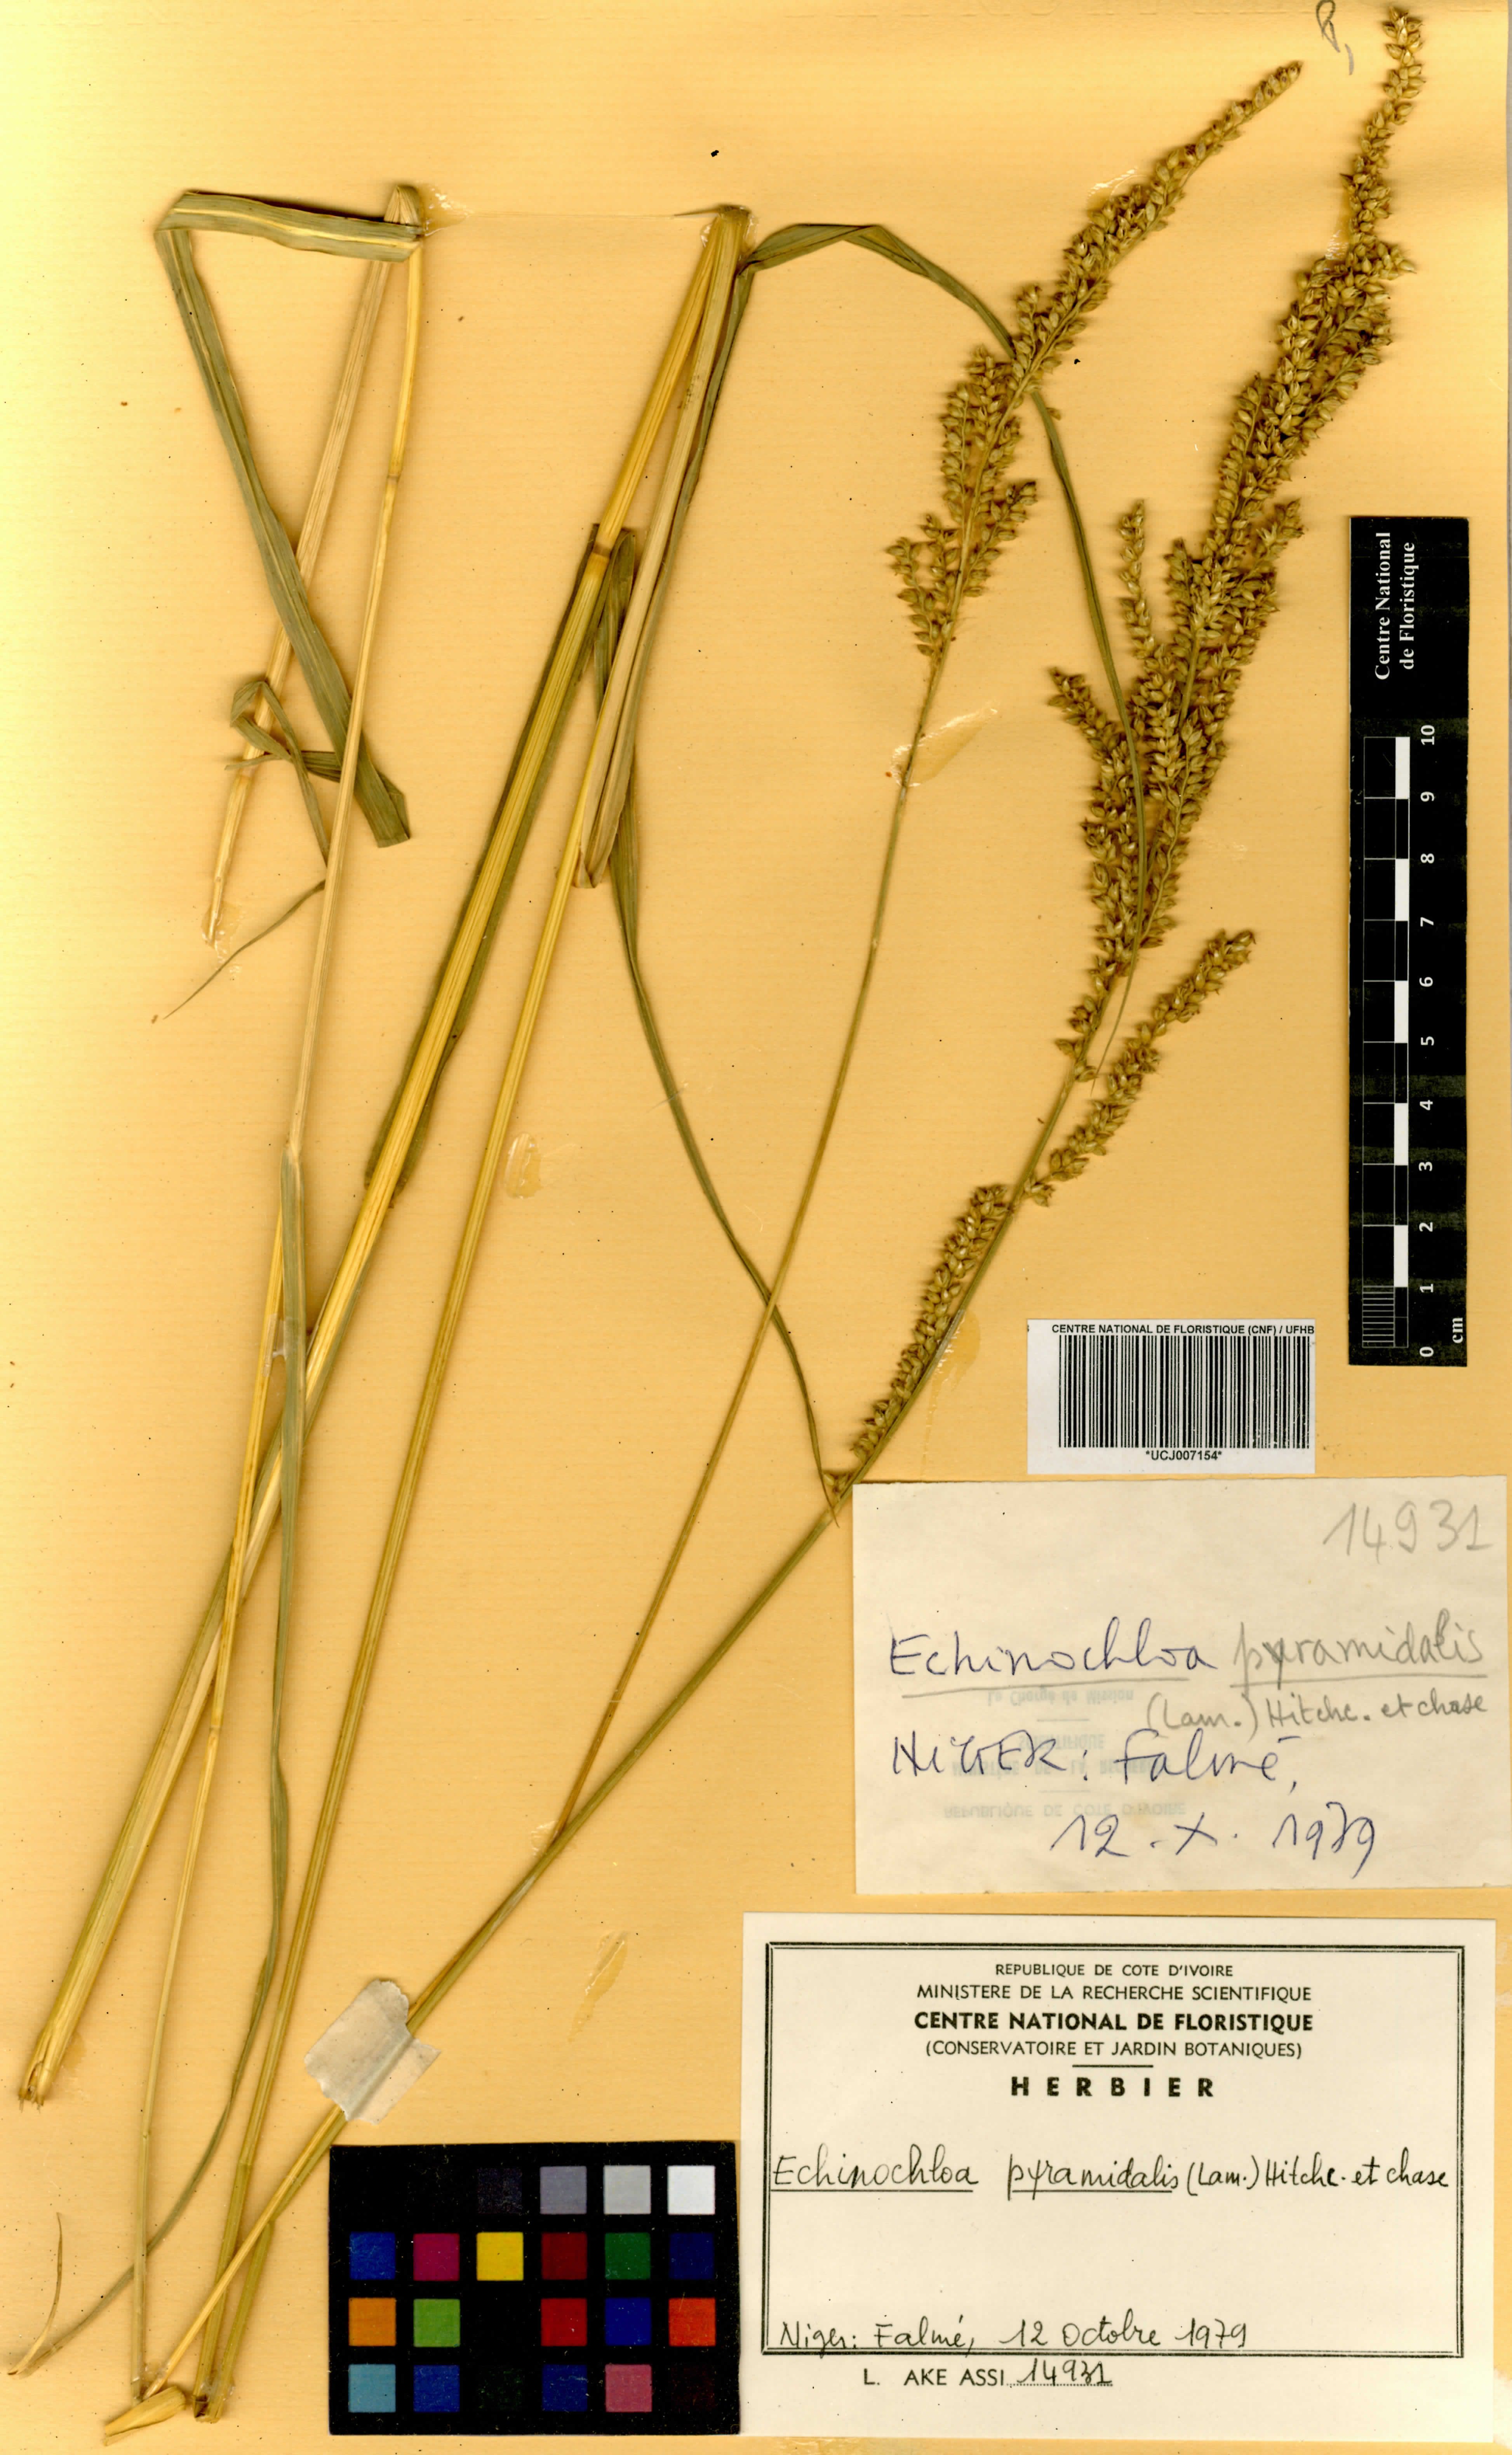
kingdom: Plantae
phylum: Tracheophyta
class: Liliopsida
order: Poales
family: Poaceae
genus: Echinochloa
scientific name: Echinochloa pyramidalis
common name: Antelope grass
